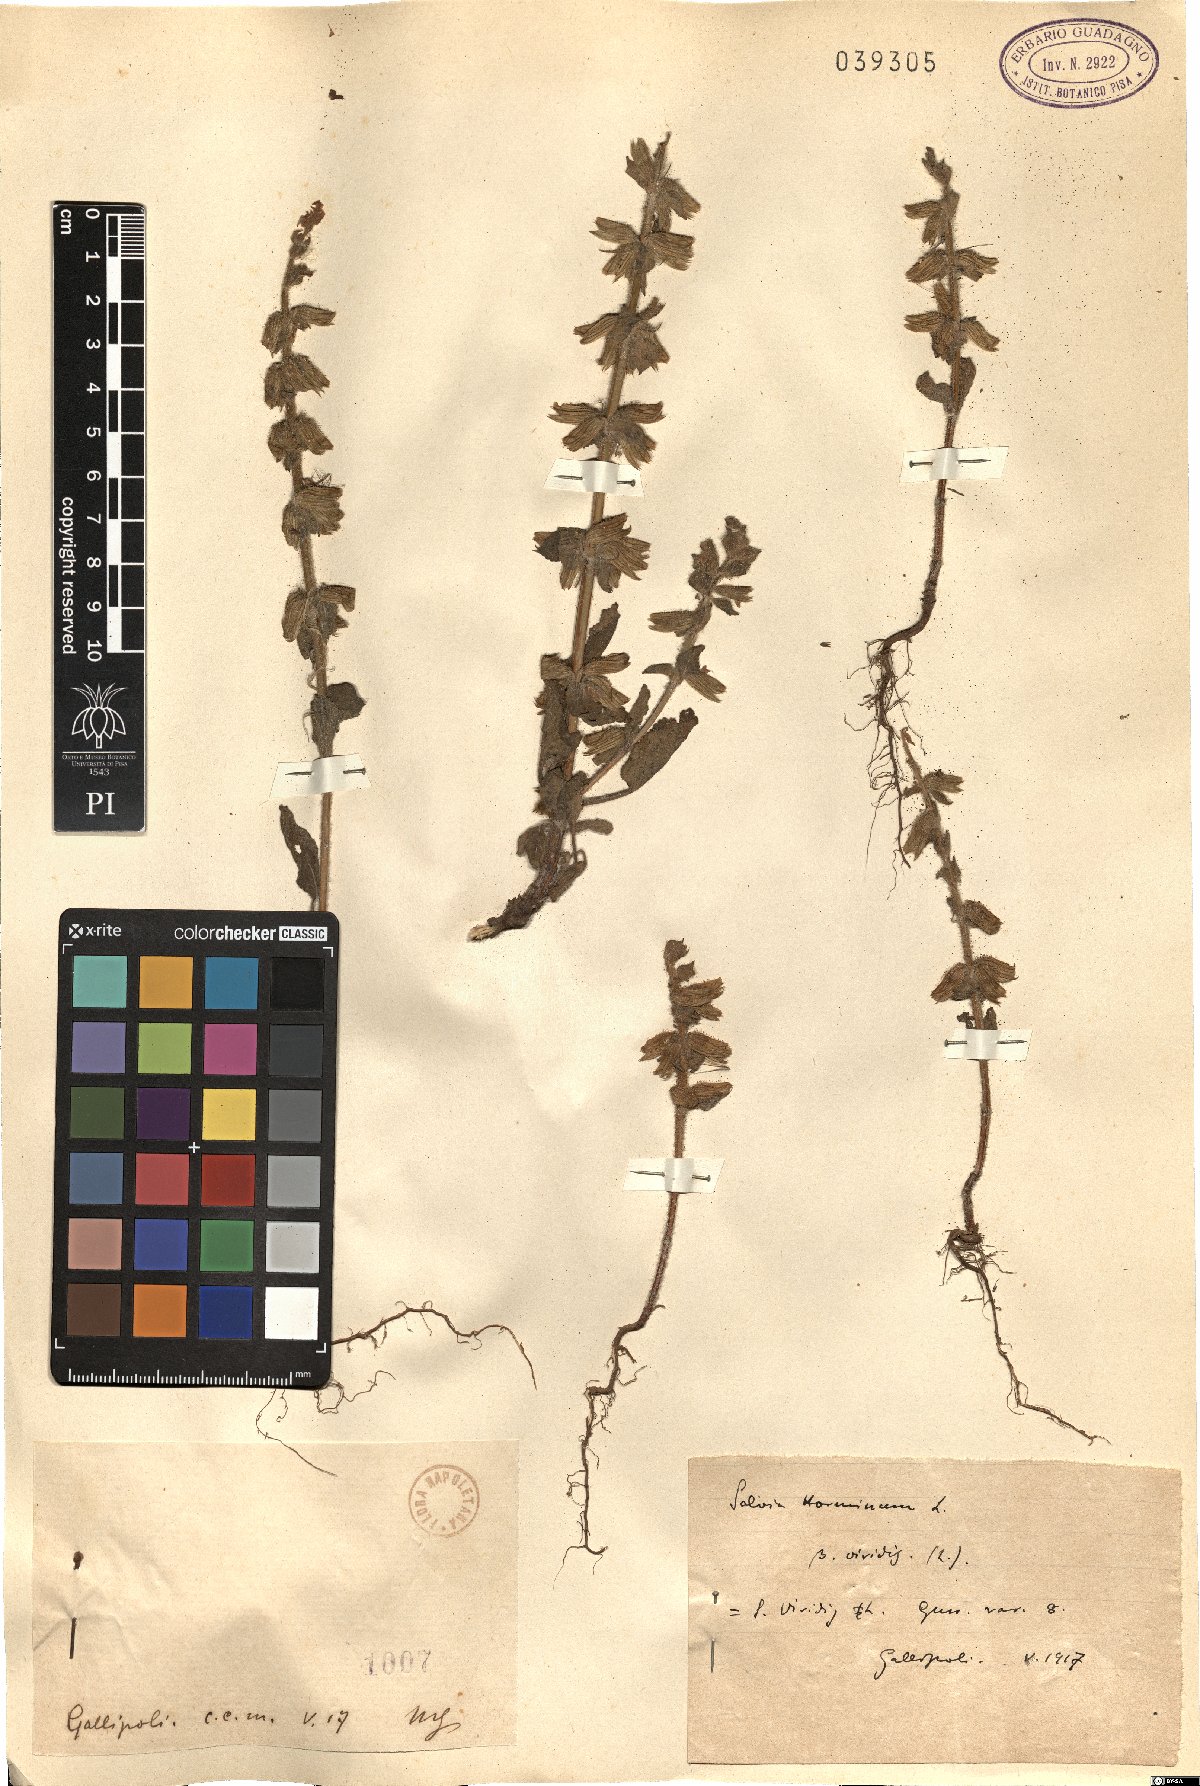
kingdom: Plantae
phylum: Tracheophyta
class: Magnoliopsida
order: Lamiales
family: Lamiaceae
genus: Salvia
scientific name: Salvia
